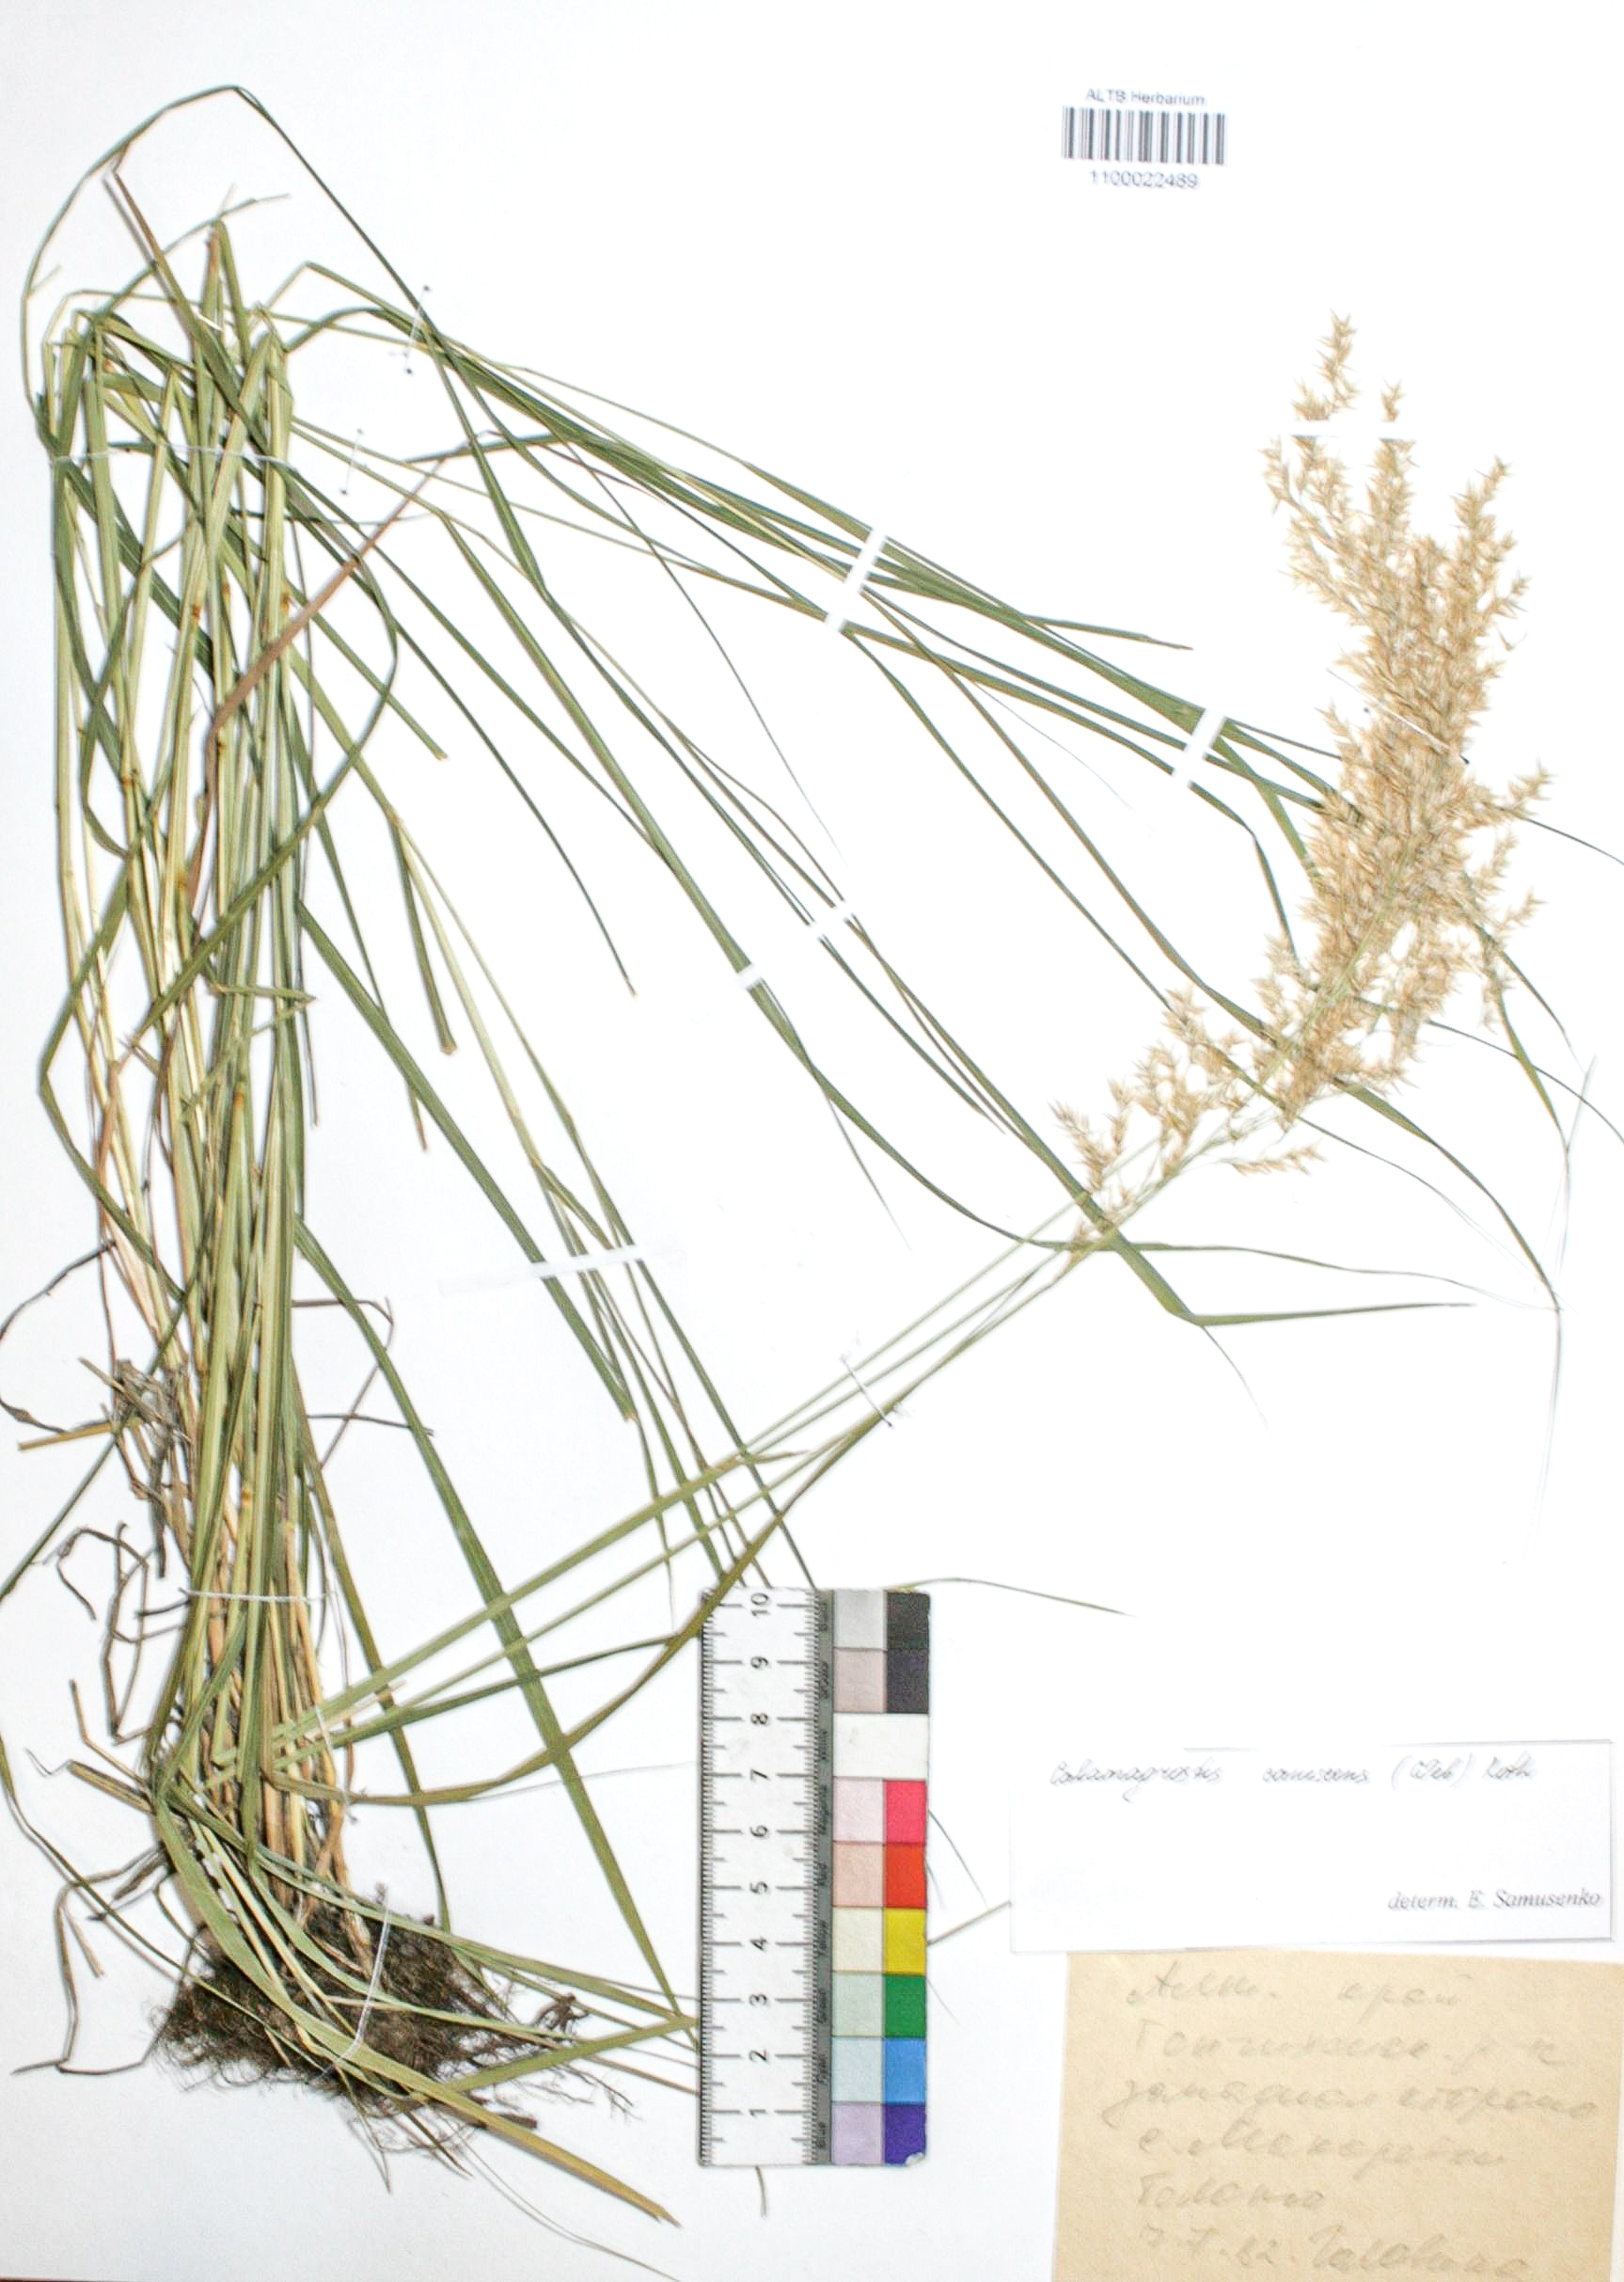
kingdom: Plantae
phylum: Tracheophyta
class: Liliopsida
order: Poales
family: Poaceae
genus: Calamagrostis
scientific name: Calamagrostis canescens
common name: Purple small-reed
